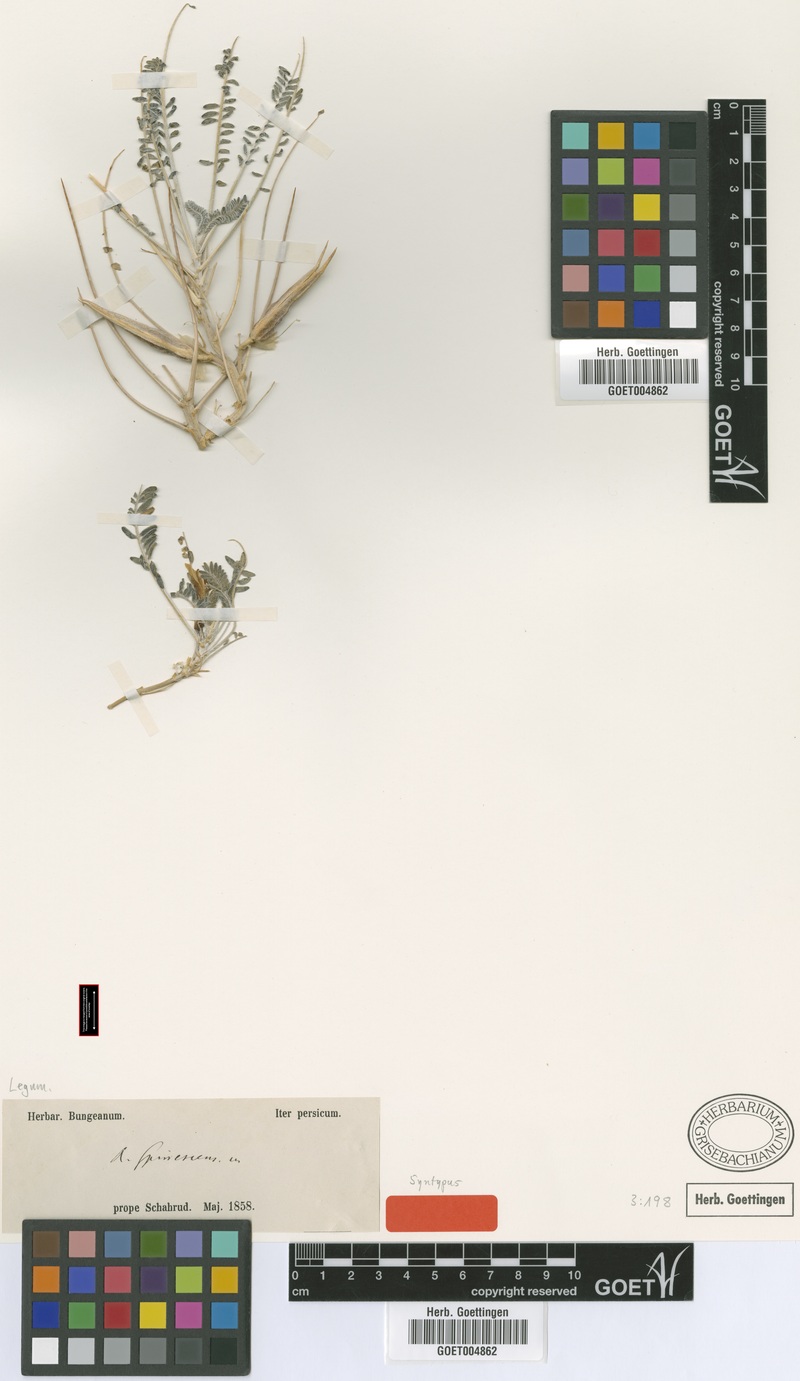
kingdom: Plantae
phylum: Tracheophyta
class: Magnoliopsida
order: Fabales
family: Fabaceae
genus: Astragalus
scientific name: Astragalus dactylocarpus
